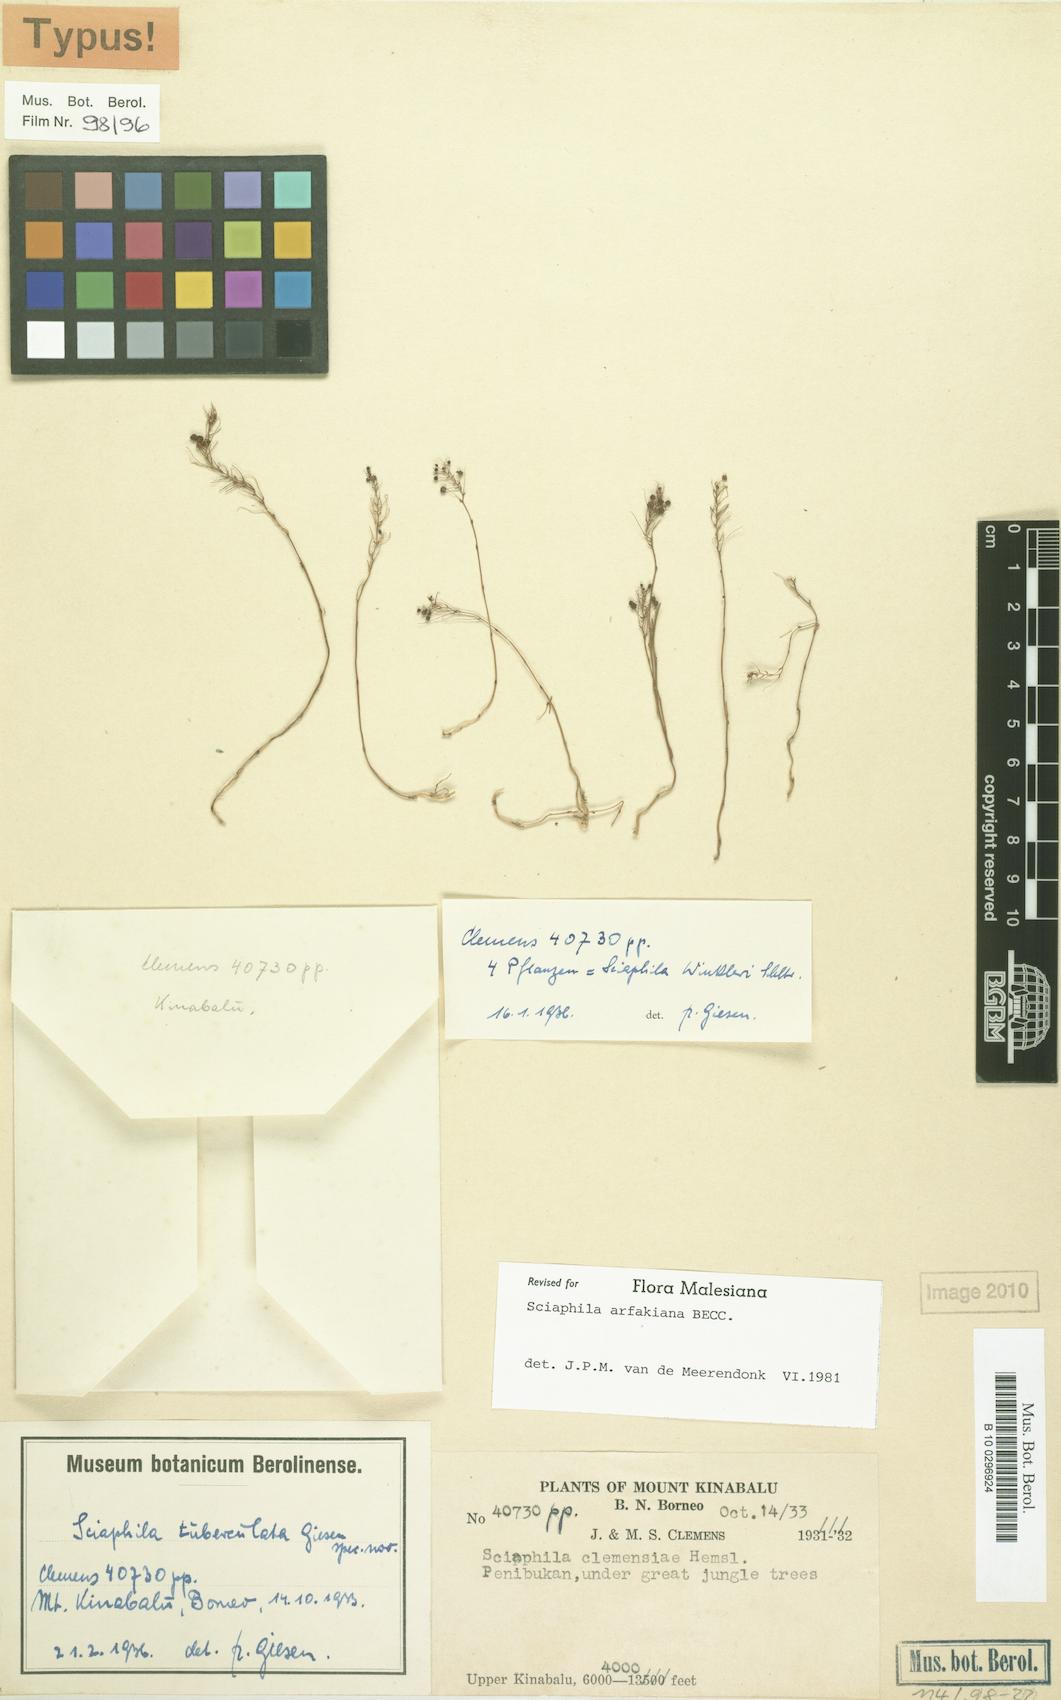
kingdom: Plantae
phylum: Tracheophyta
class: Liliopsida
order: Pandanales
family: Triuridaceae
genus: Sciaphila
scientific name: Sciaphila arfakiana
